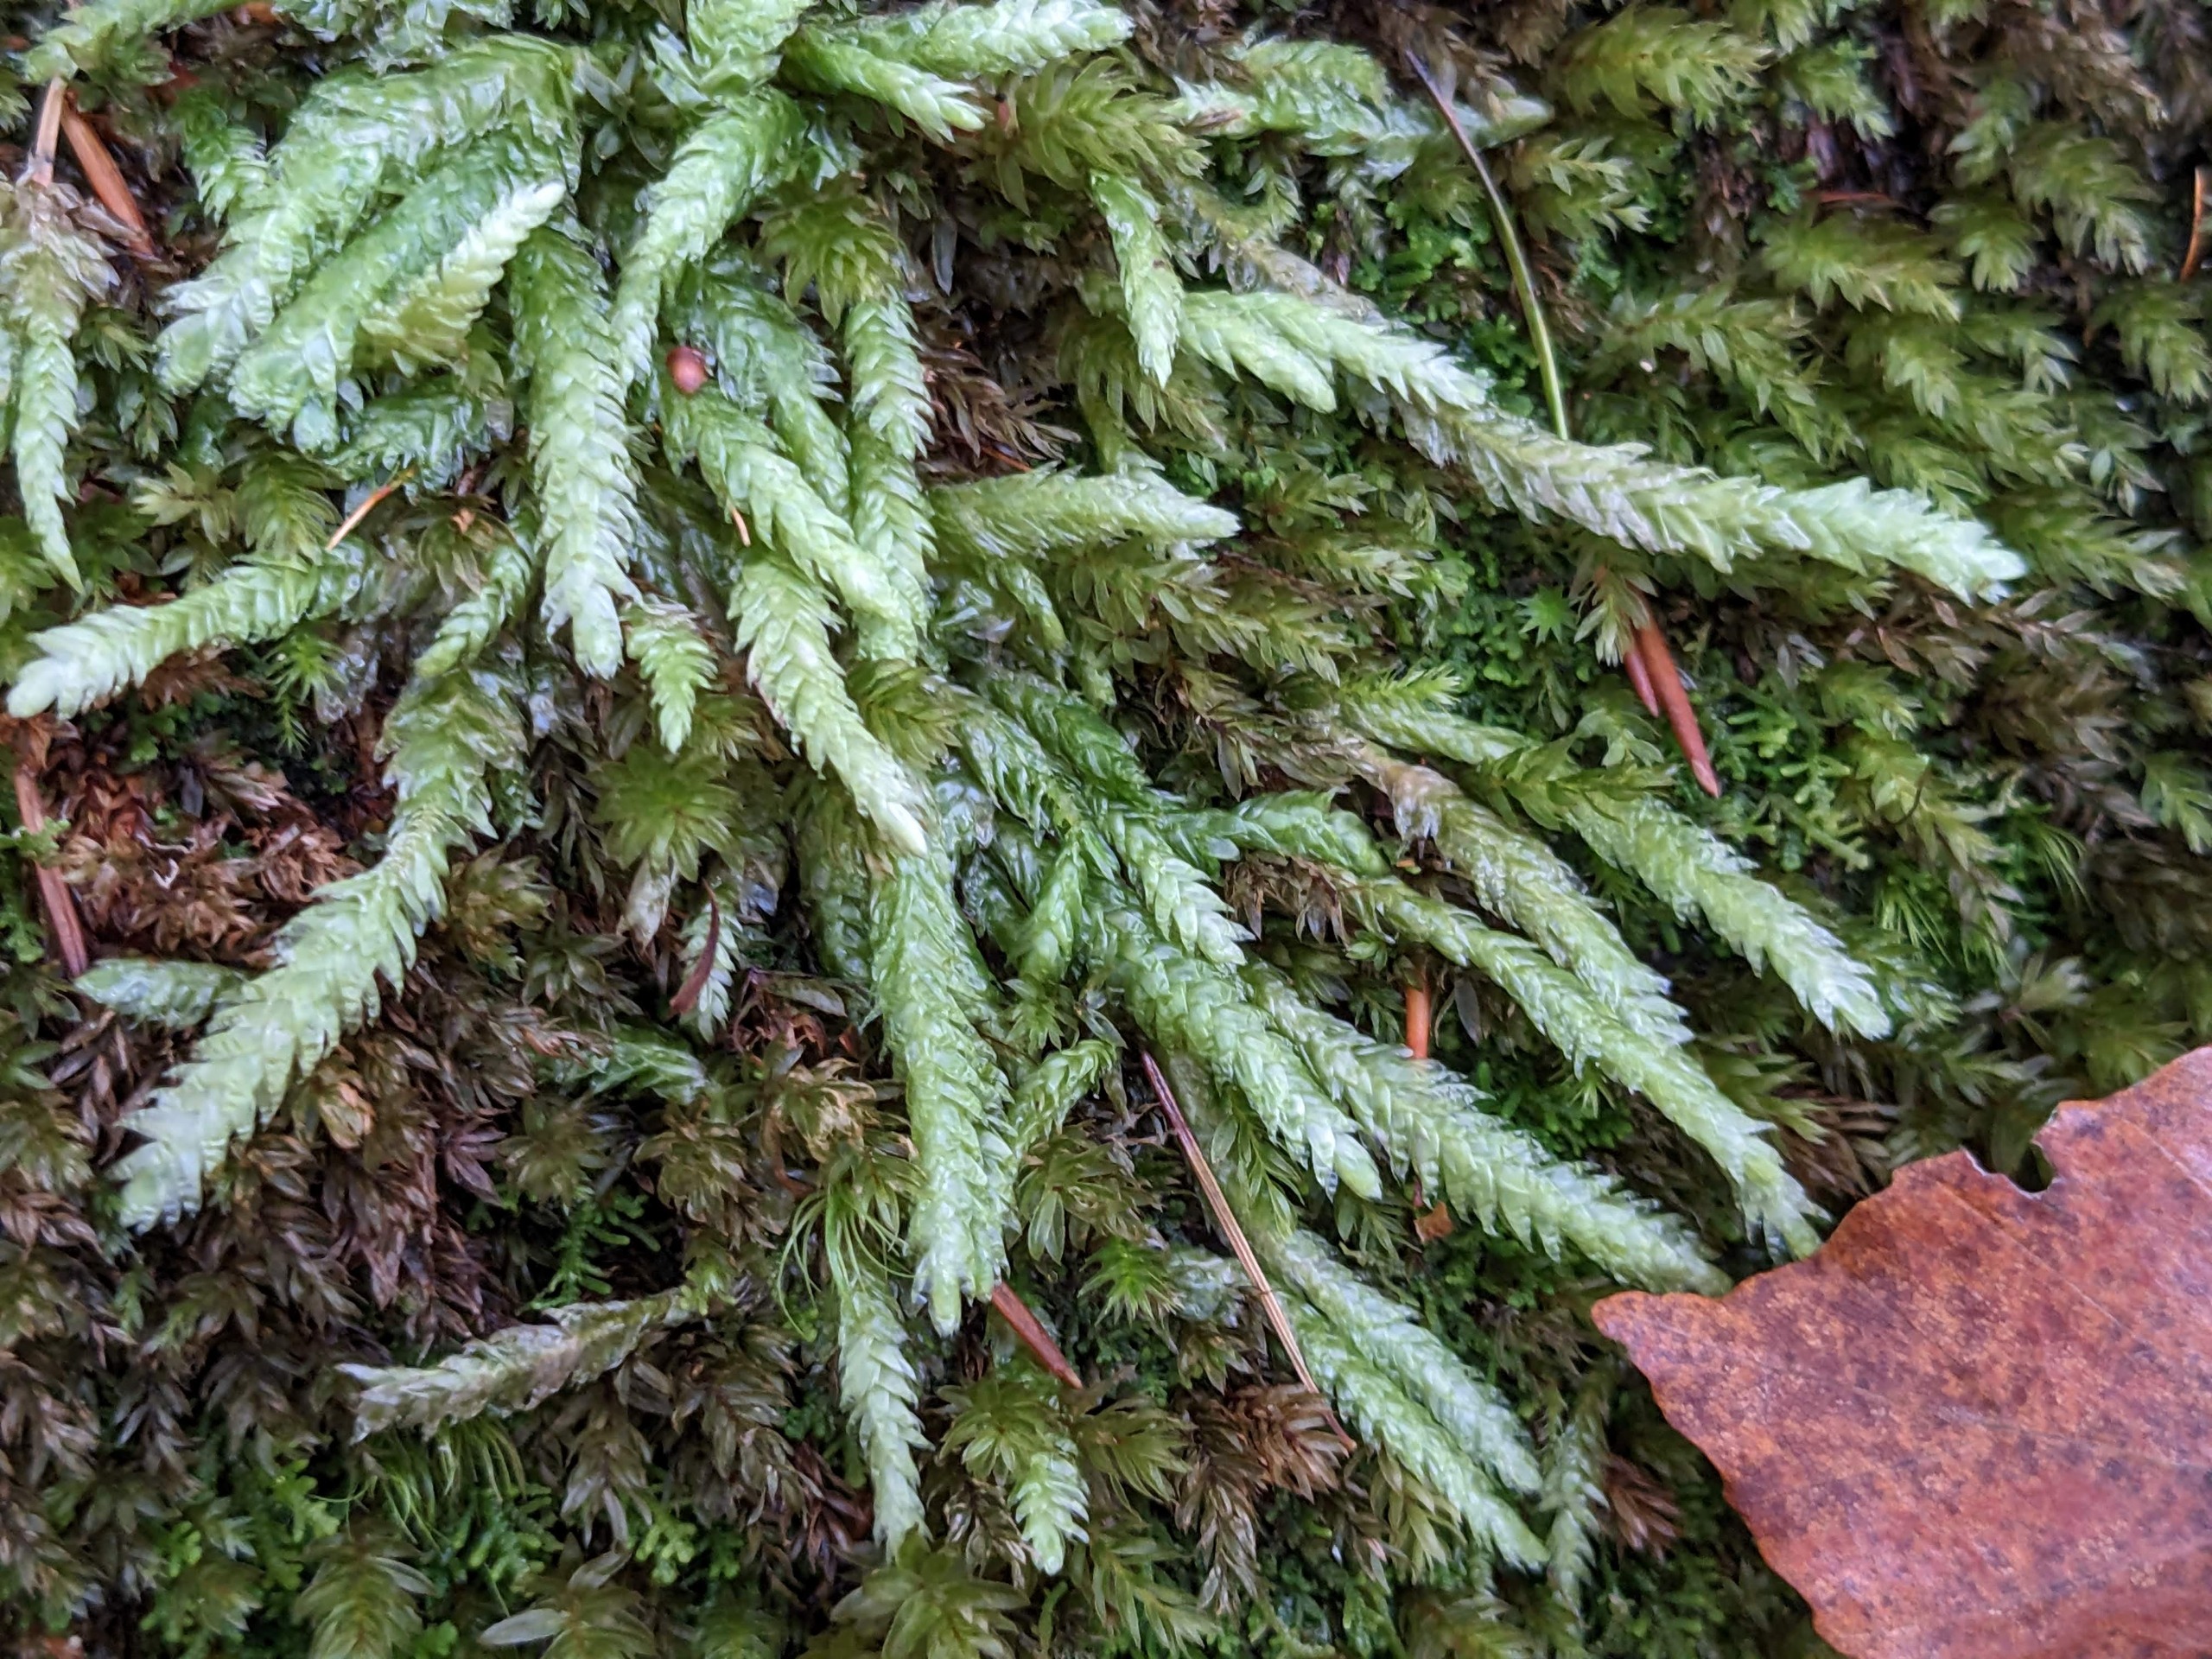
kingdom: Plantae
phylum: Bryophyta
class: Bryopsida
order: Hypnales
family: Plagiotheciaceae
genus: Plagiothecium
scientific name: Plagiothecium undulatum
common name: Bølget tæppemos
